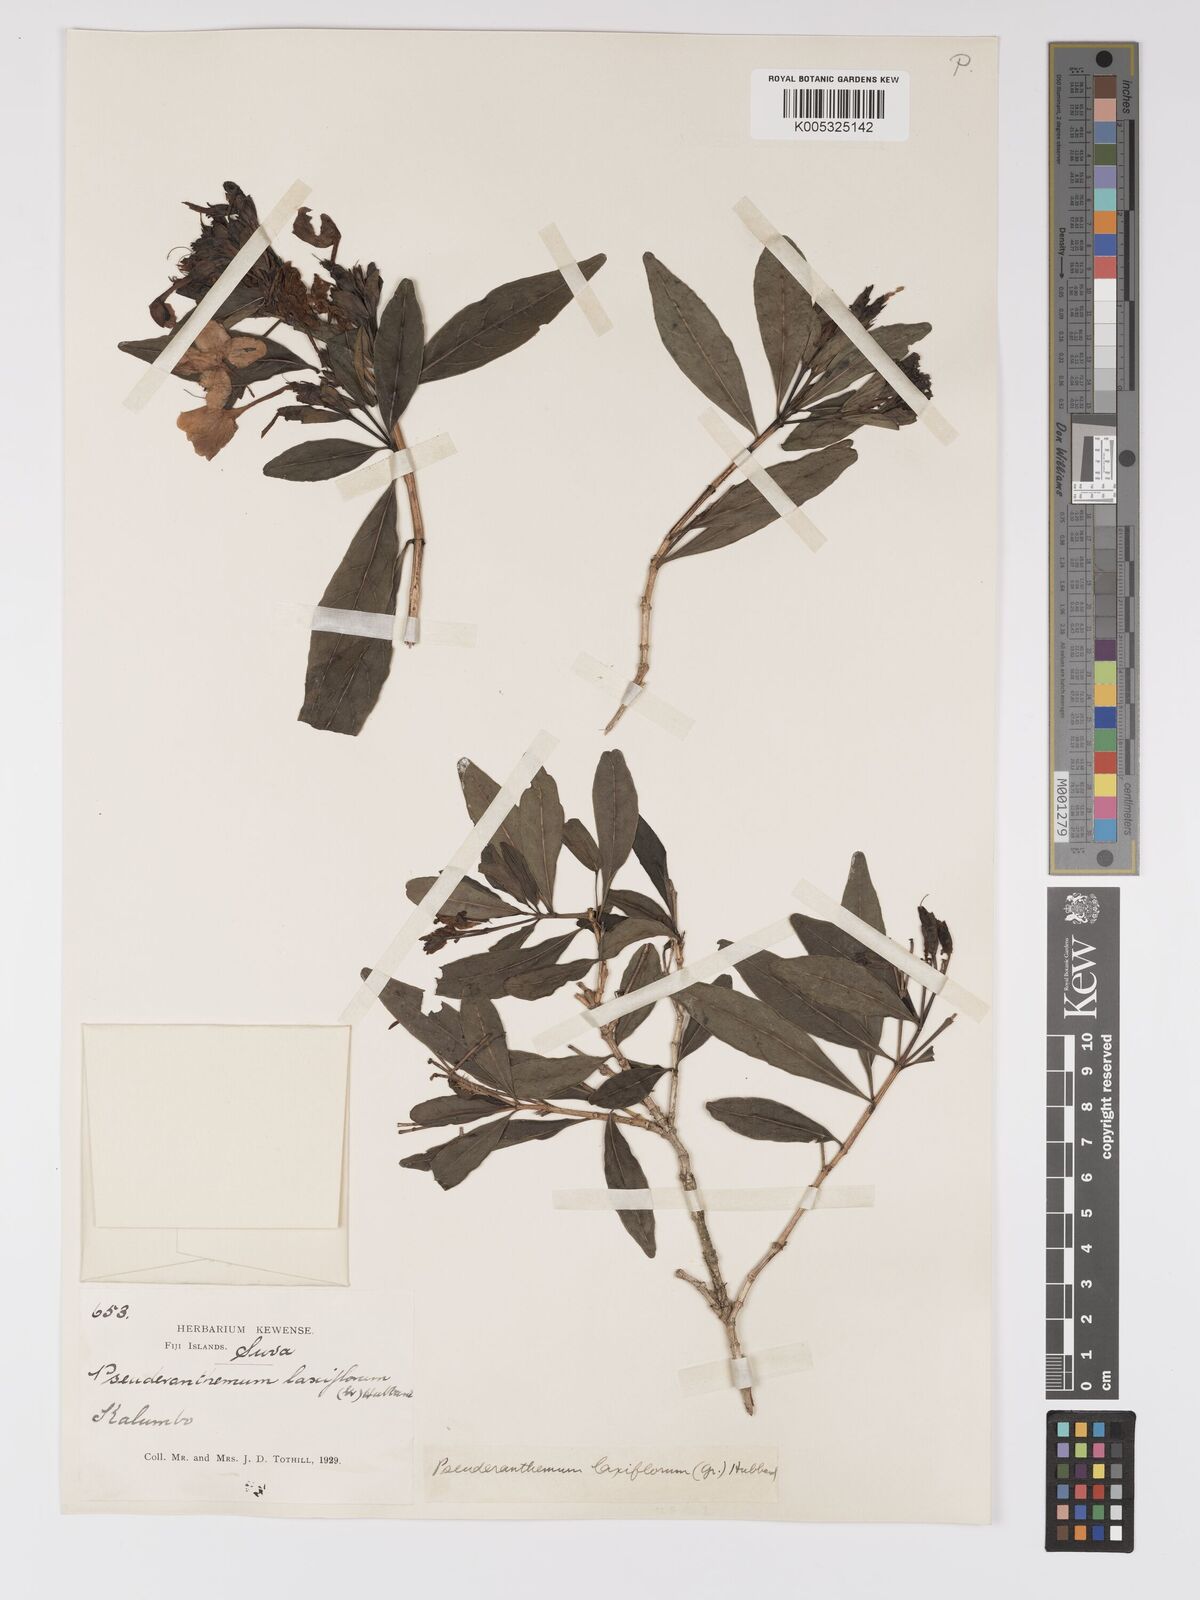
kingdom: Plantae
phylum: Tracheophyta
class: Magnoliopsida
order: Lamiales
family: Acanthaceae
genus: Pseuderanthemum
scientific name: Pseuderanthemum laxiflorum
